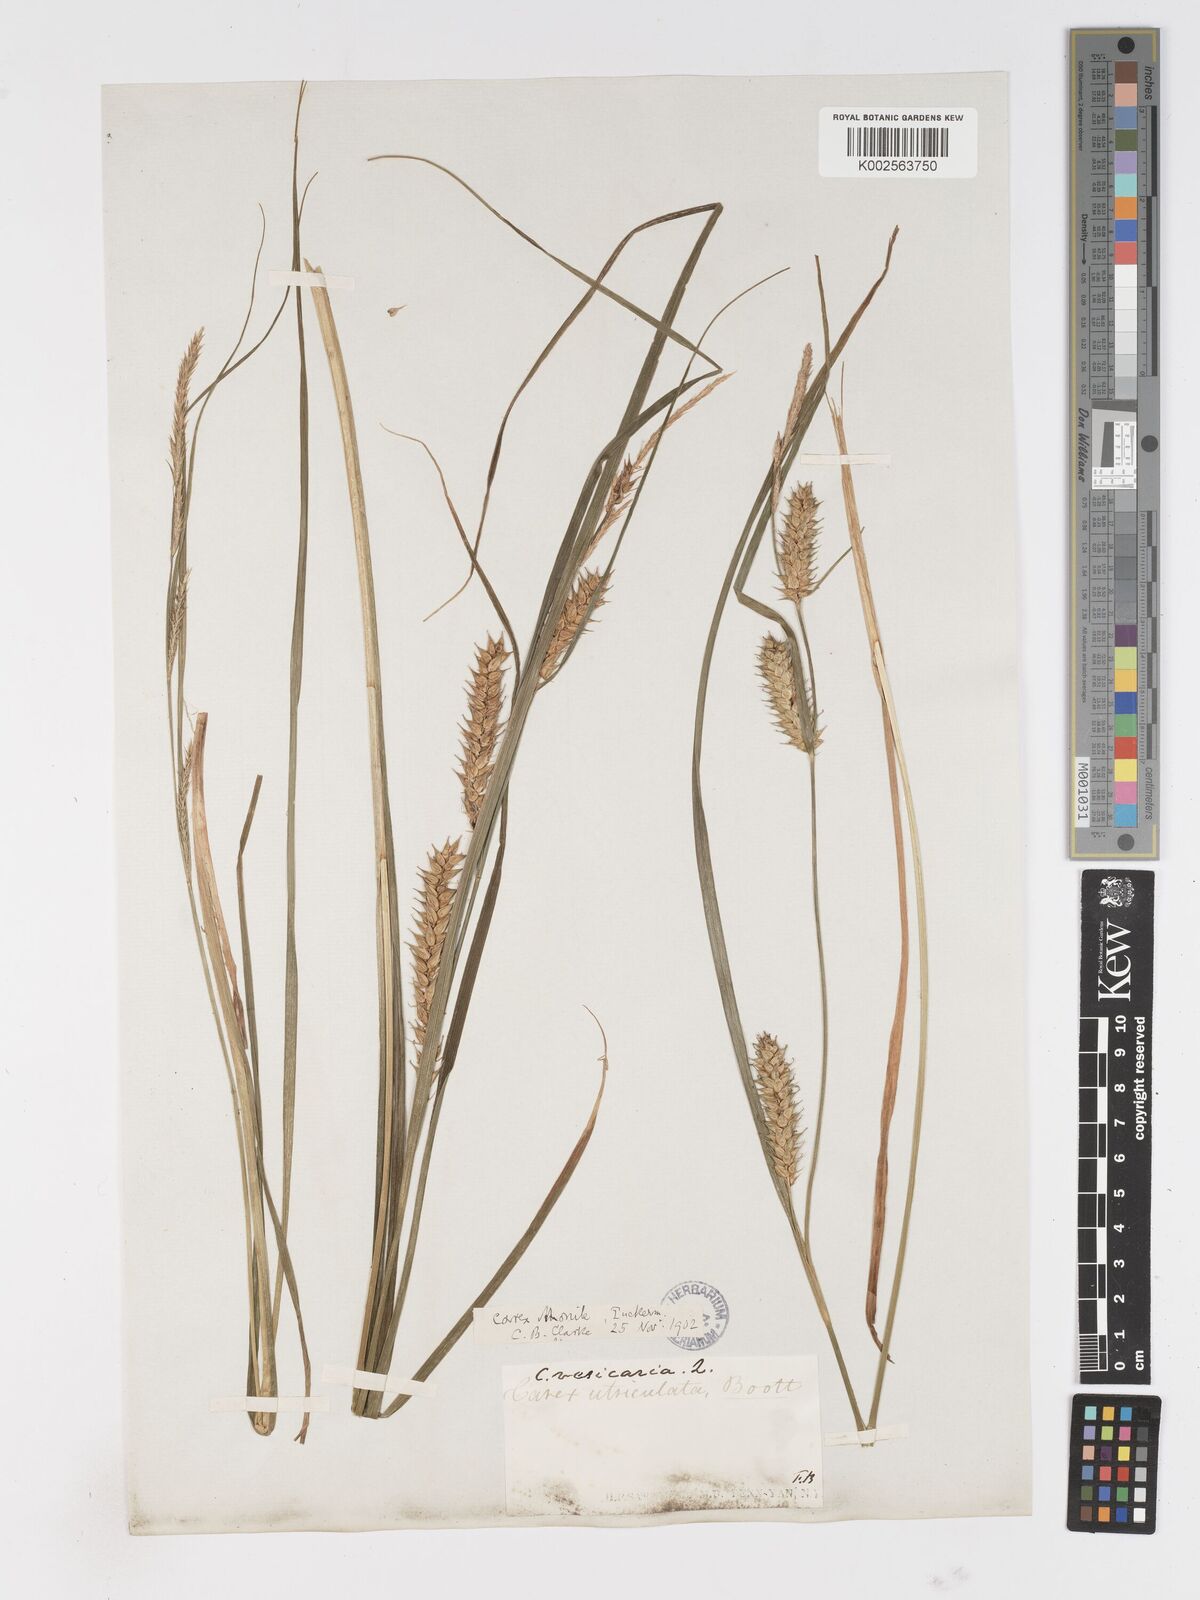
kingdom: Plantae
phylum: Tracheophyta
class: Liliopsida
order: Poales
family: Cyperaceae
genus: Carex
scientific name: Carex vesicaria
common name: Bladder-sedge
